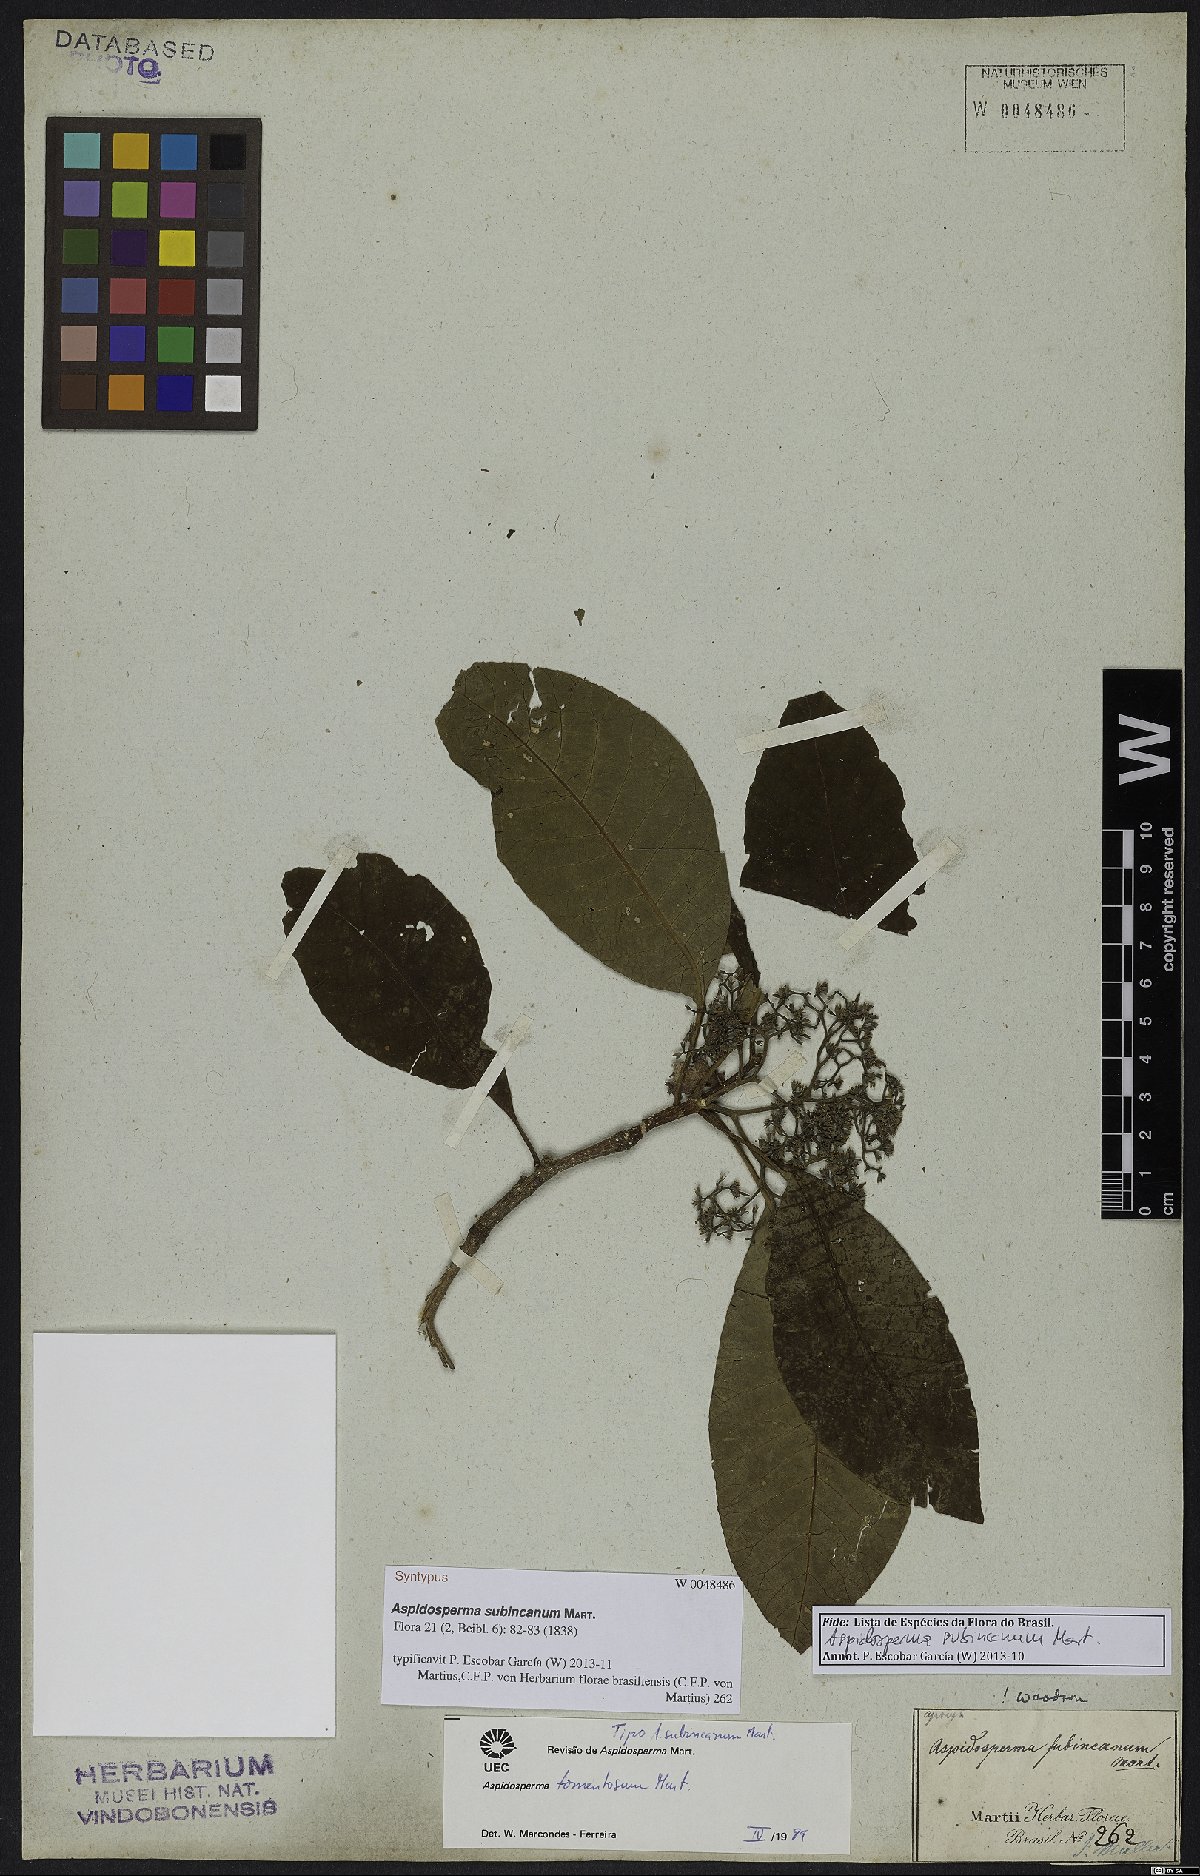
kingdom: Plantae
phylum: Tracheophyta
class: Magnoliopsida
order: Gentianales
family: Apocynaceae
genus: Aspidosperma
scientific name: Aspidosperma subincanum
